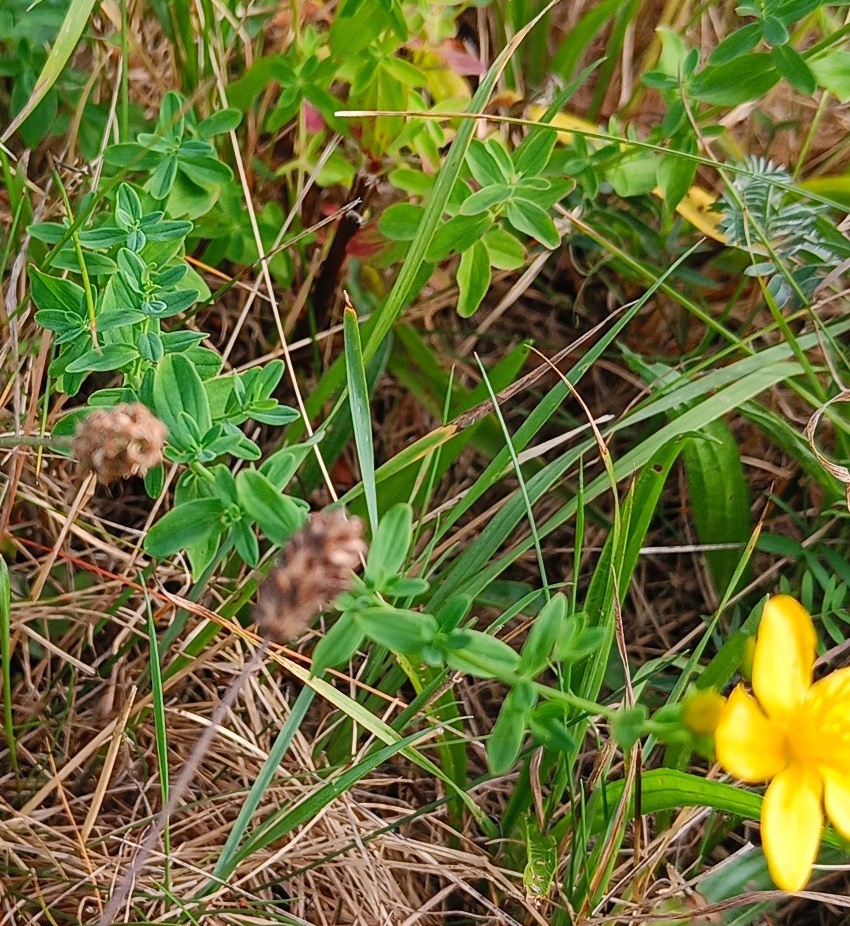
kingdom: Plantae
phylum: Tracheophyta
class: Magnoliopsida
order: Malpighiales
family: Hypericaceae
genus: Hypericum
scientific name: Hypericum perforatum
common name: Prikbladet perikon
